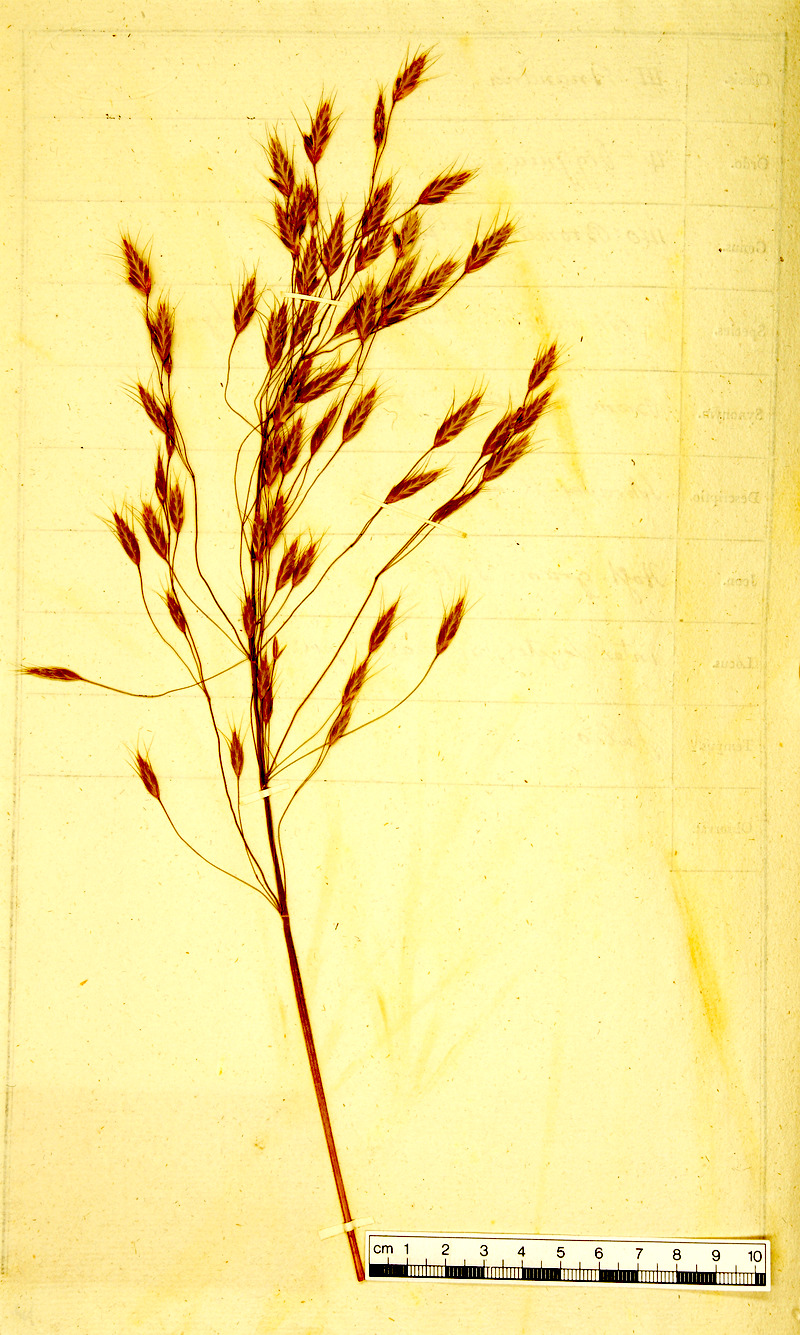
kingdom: Plantae
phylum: Tracheophyta
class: Liliopsida
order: Poales
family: Poaceae
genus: Bromus
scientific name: Bromus commutatus
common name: Meadow brome
